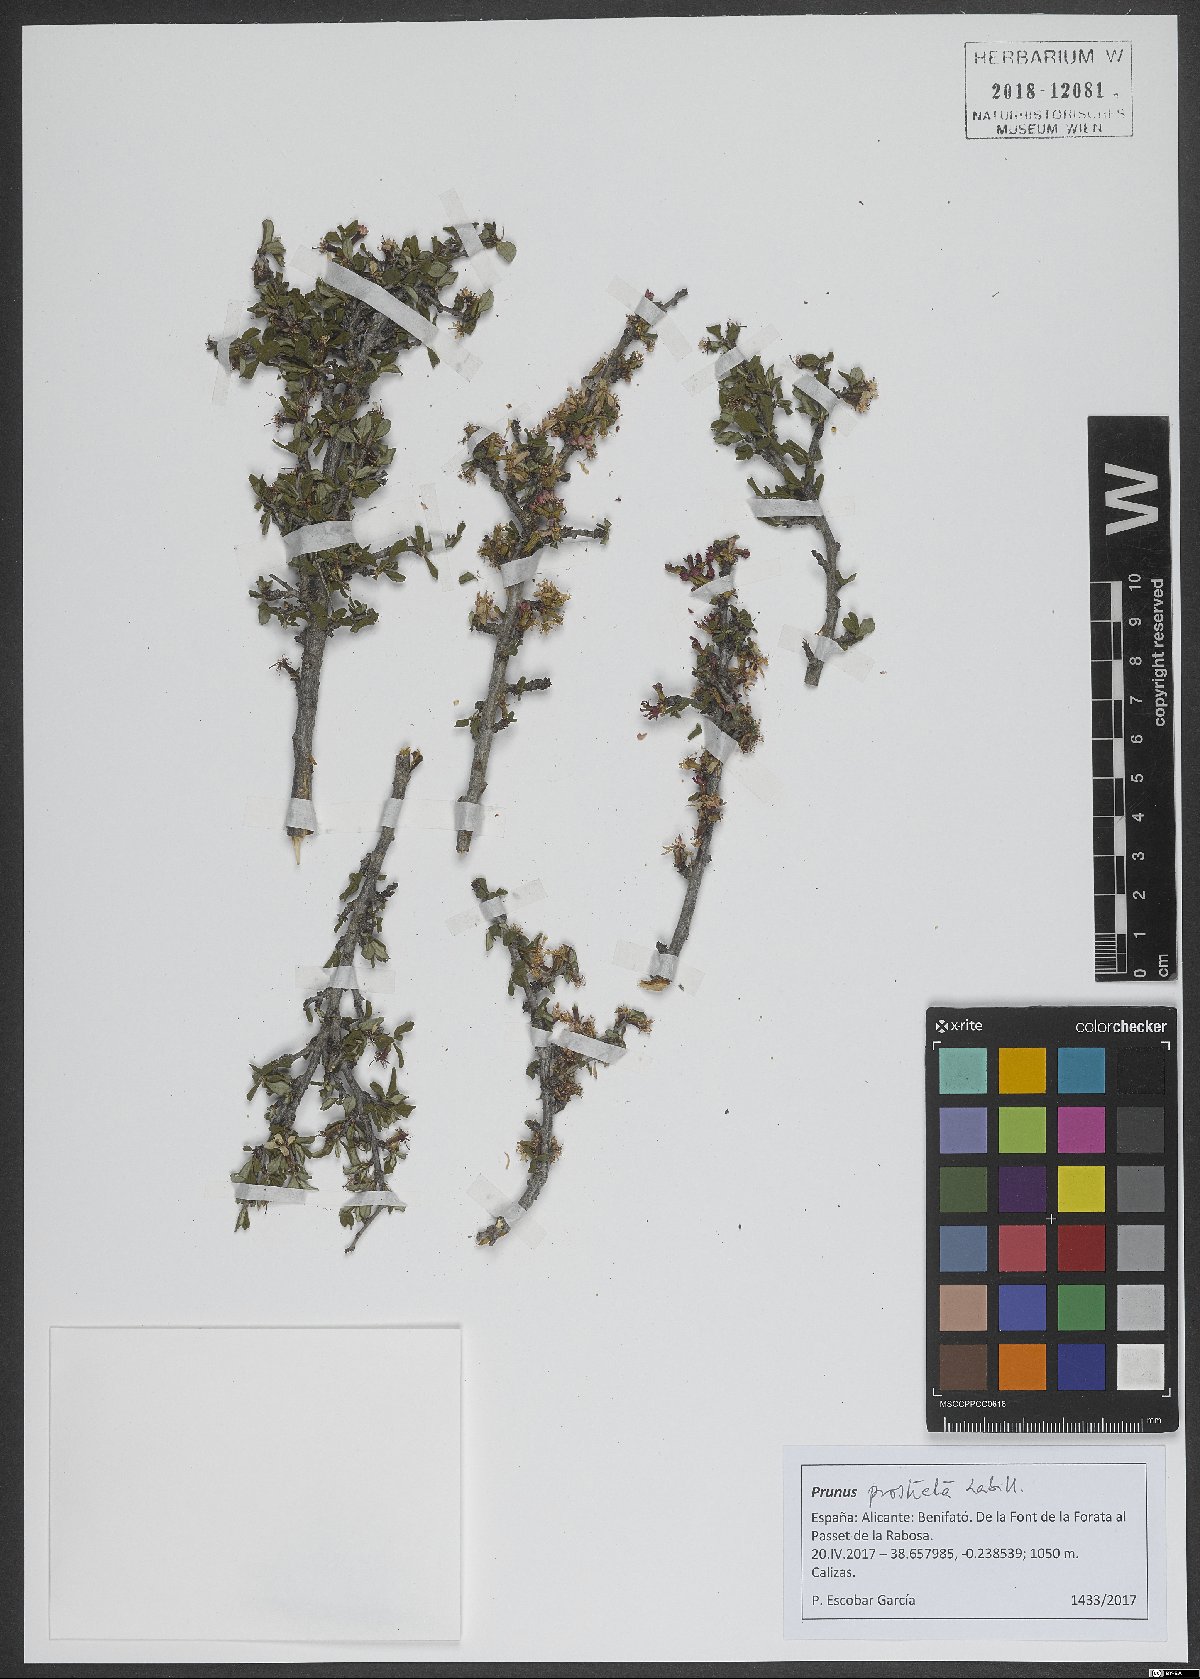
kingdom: Plantae
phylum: Tracheophyta
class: Magnoliopsida
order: Rosales
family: Rosaceae
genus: Prunus
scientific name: Prunus prostrata
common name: Mountain cherry
